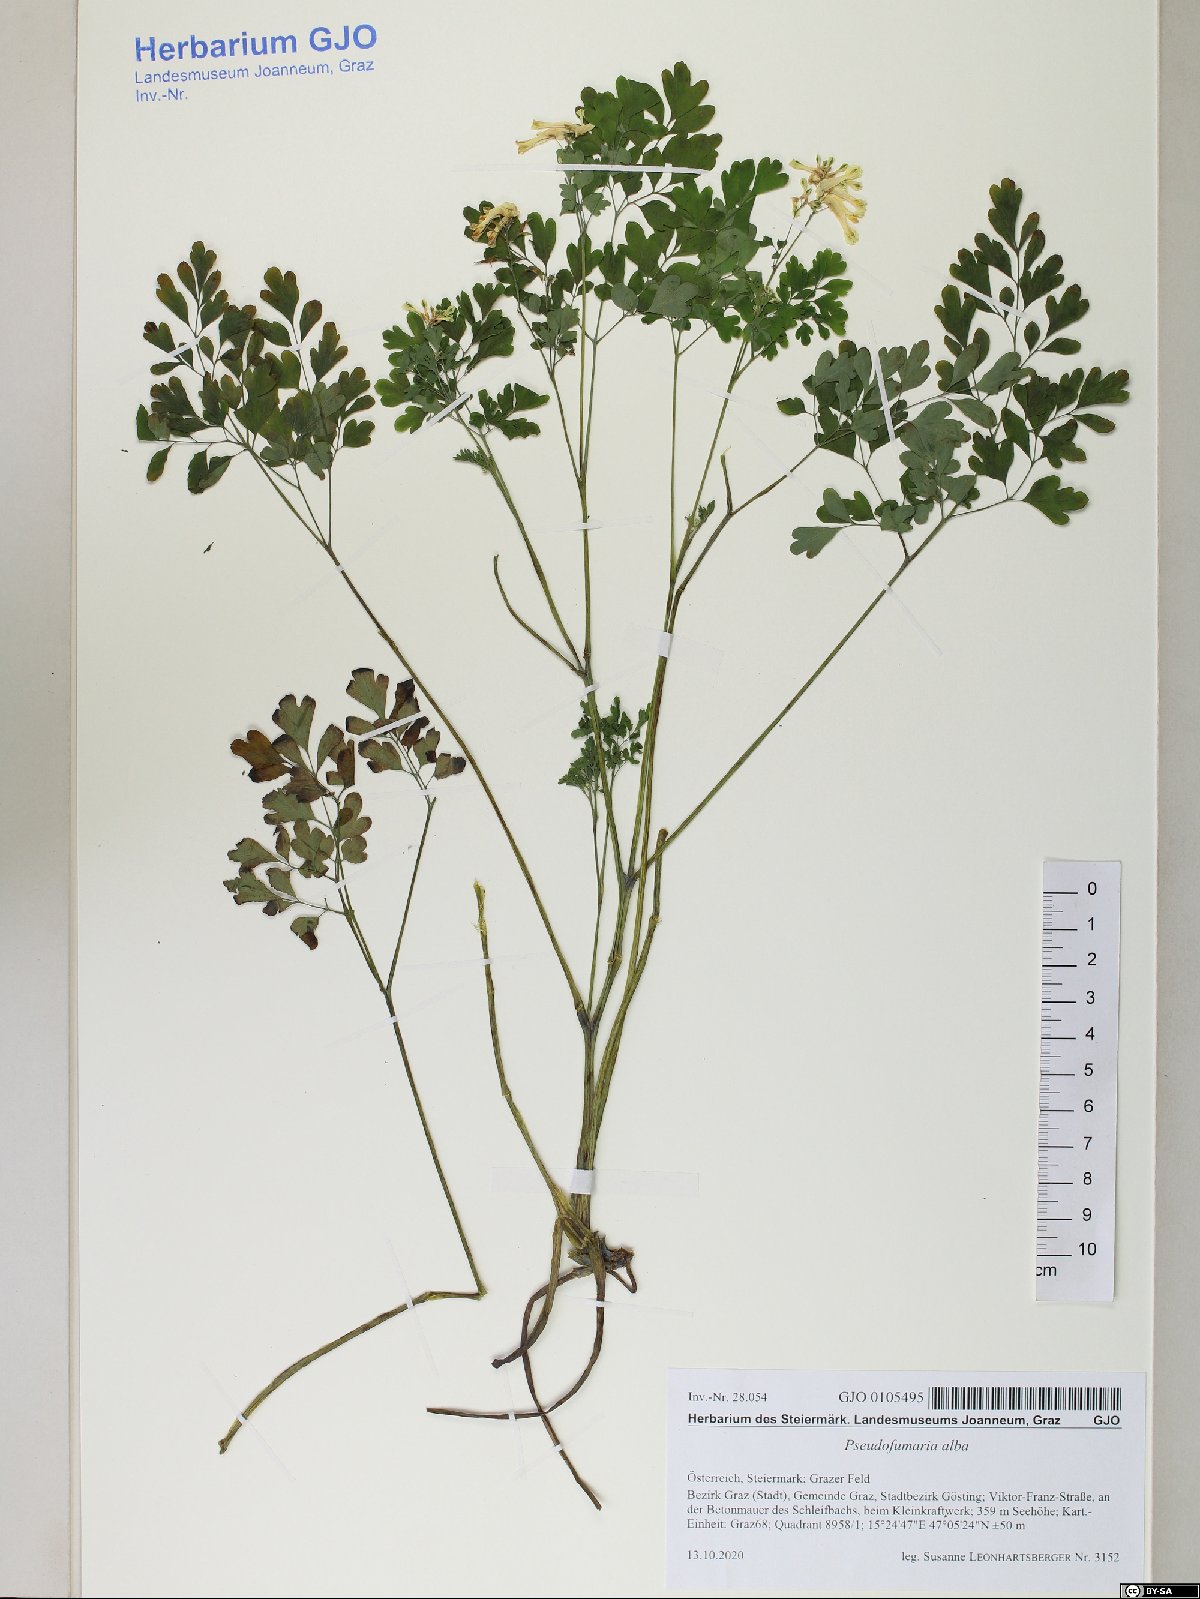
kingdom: Plantae
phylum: Tracheophyta
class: Magnoliopsida
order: Ranunculales
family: Papaveraceae
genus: Pseudofumaria
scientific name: Pseudofumaria alba
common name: Pale corydalis
